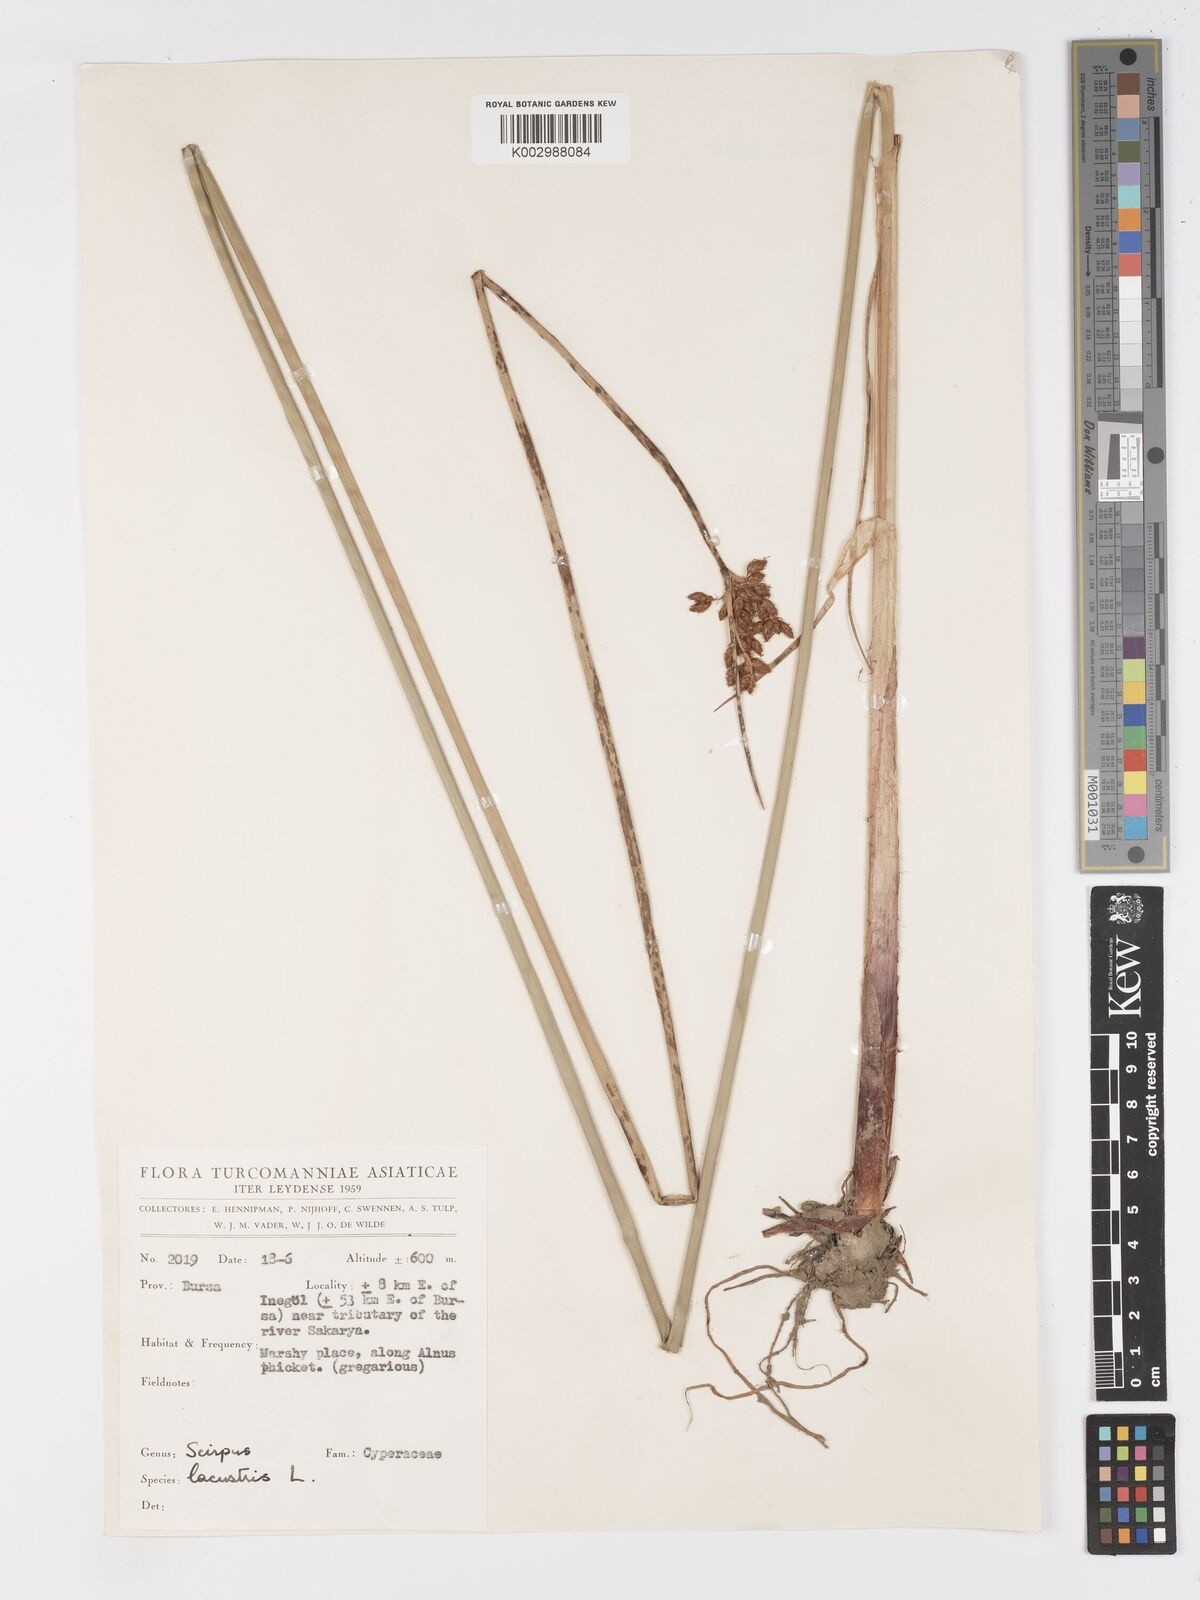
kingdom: Plantae
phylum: Tracheophyta
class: Liliopsida
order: Poales
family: Cyperaceae
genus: Schoenoplectus
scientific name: Schoenoplectus lacustris
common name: Common club-rush
